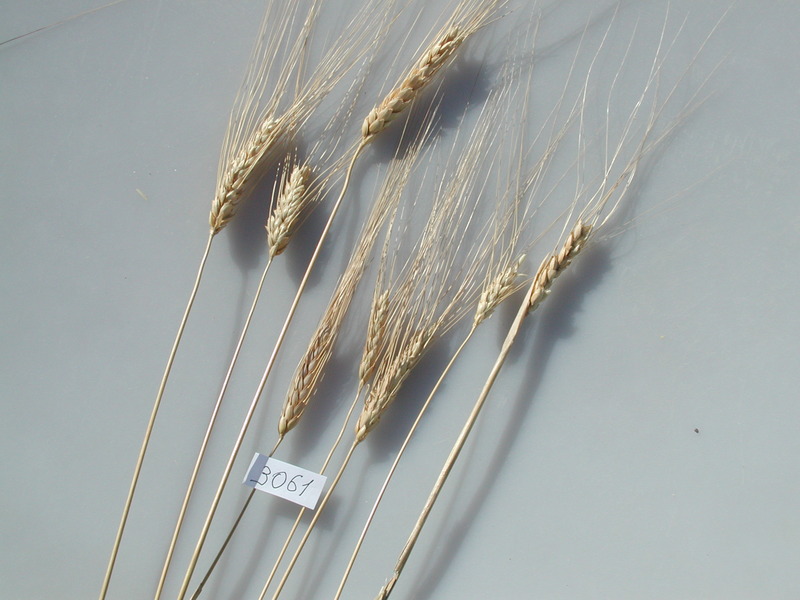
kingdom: Plantae
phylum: Tracheophyta
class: Liliopsida
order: Poales
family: Poaceae
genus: Triticum
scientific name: Triticum turgidum
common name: Wheat
